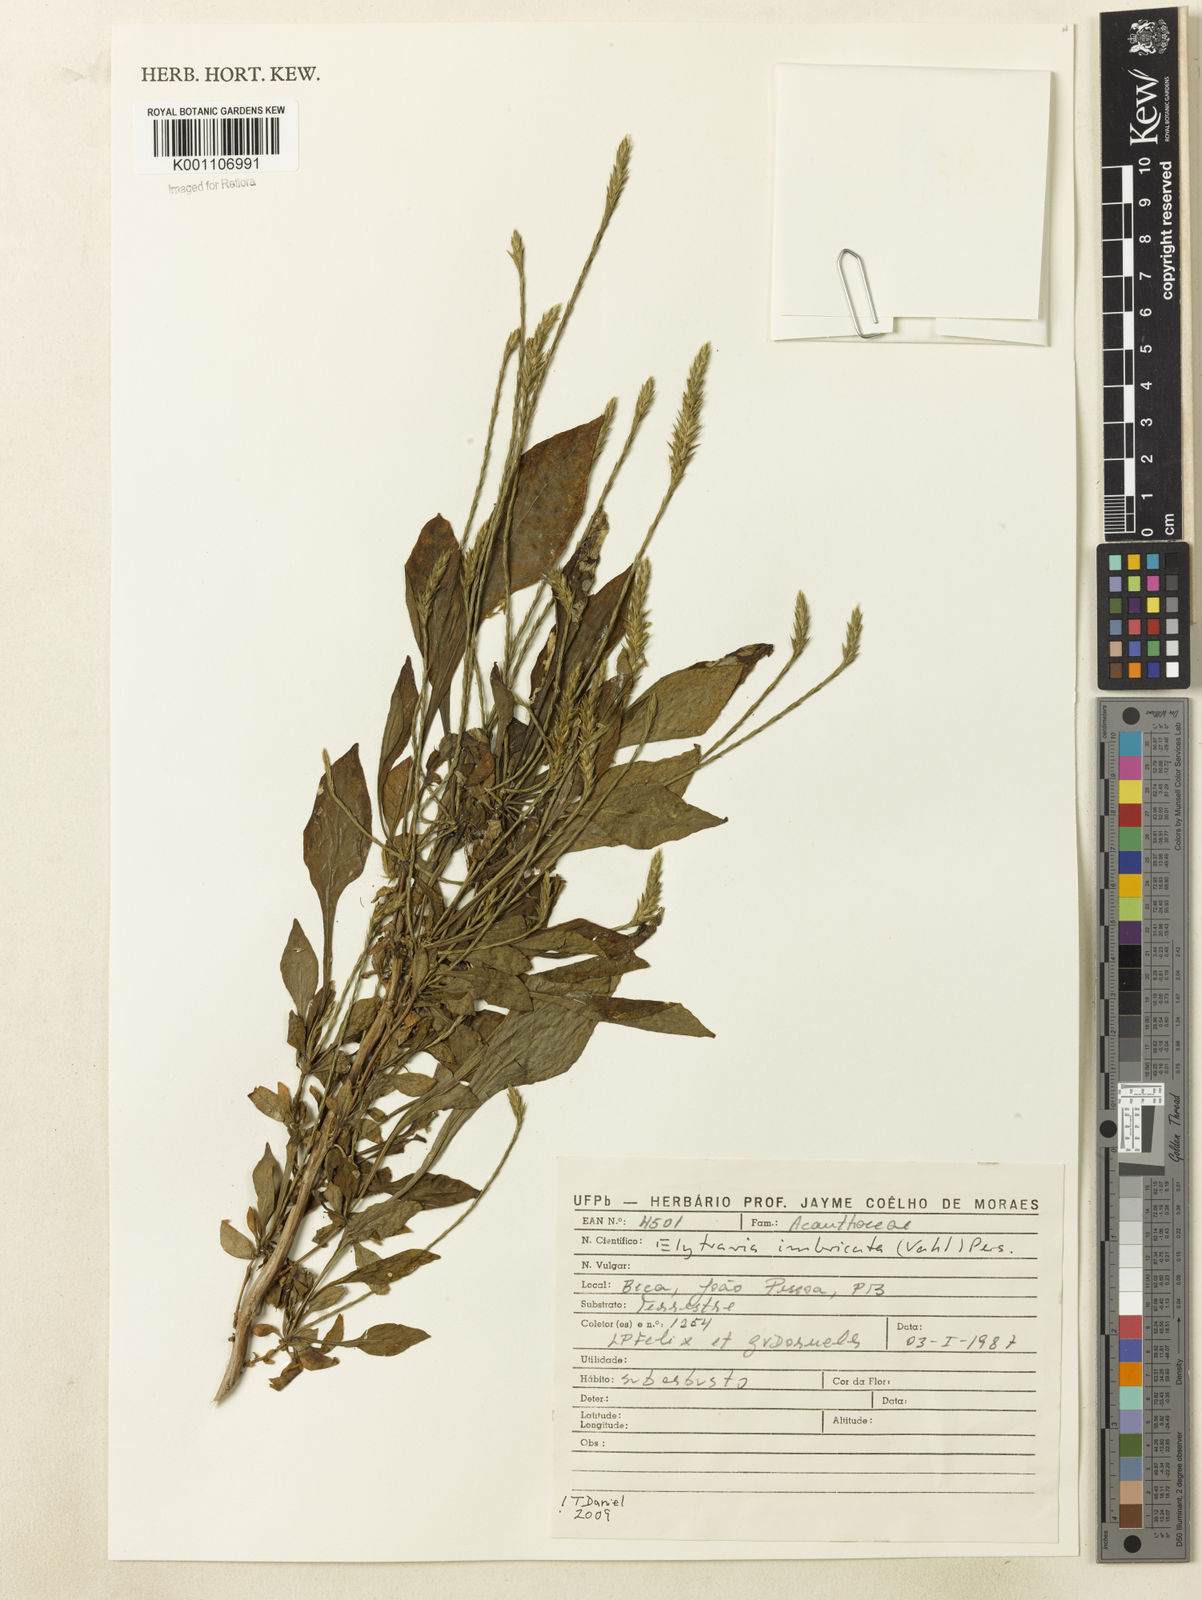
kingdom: Plantae
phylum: Tracheophyta
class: Magnoliopsida
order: Lamiales
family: Acanthaceae
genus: Elytraria
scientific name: Elytraria imbricata
